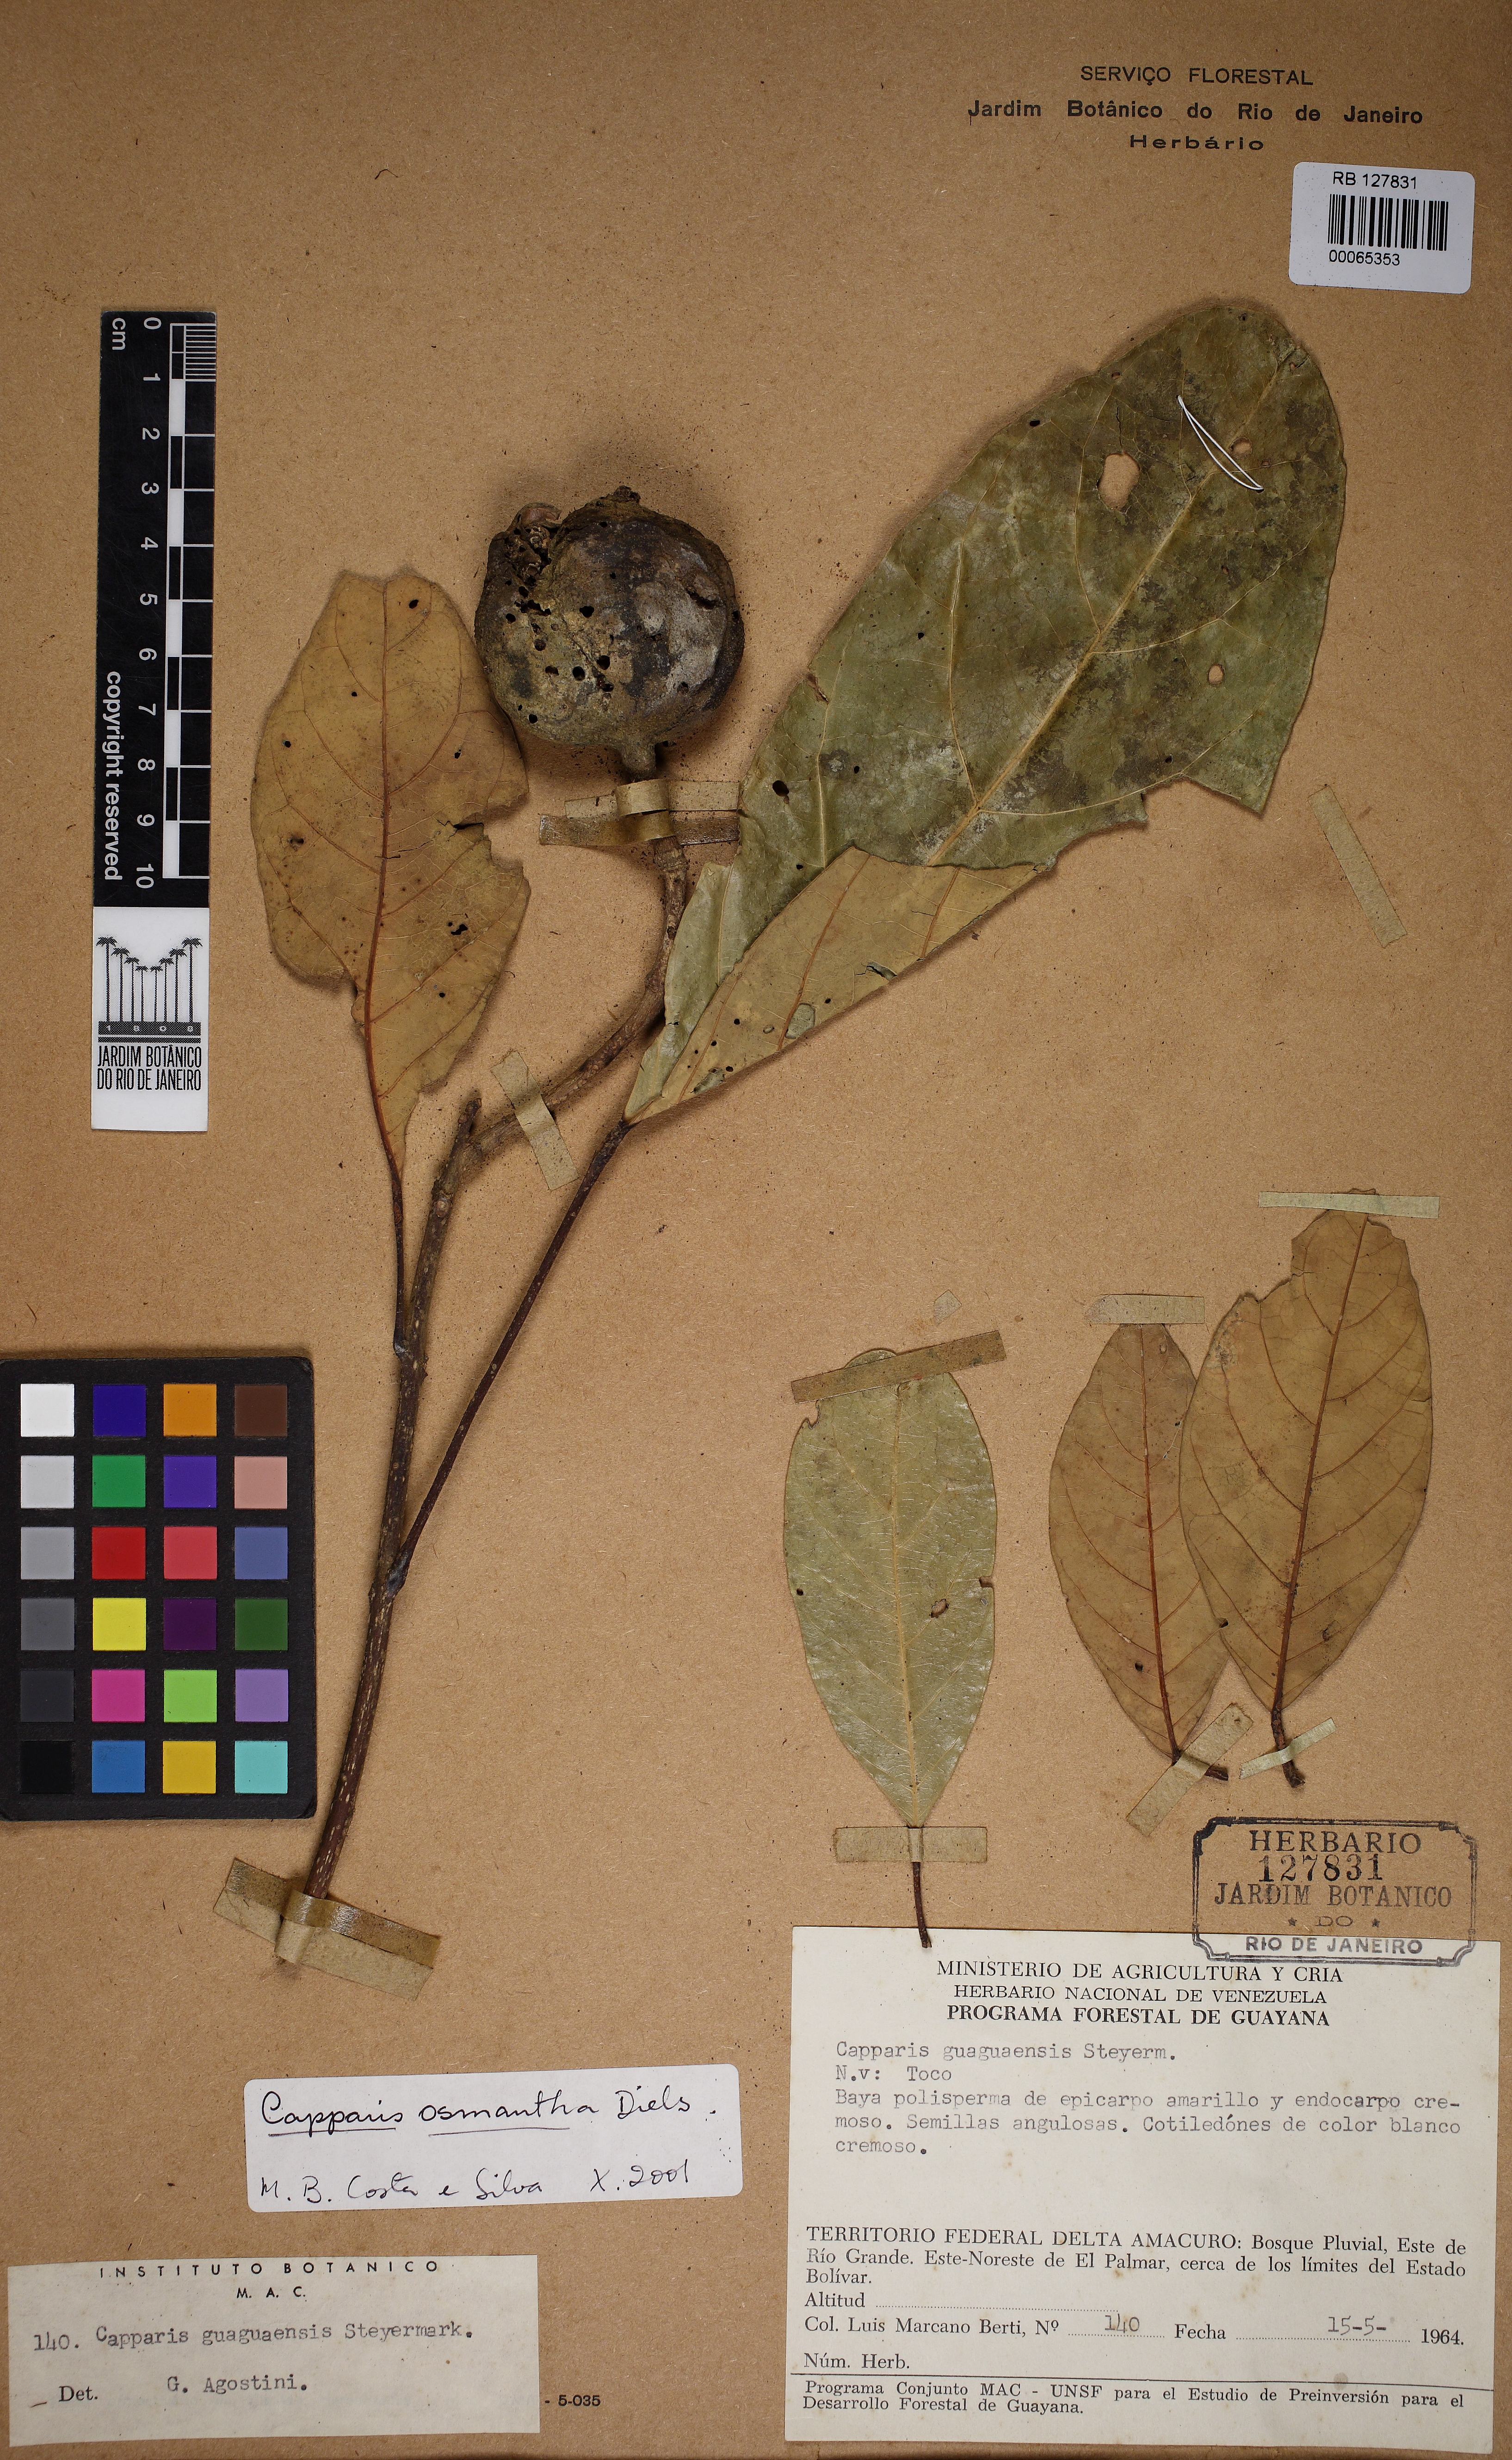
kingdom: Plantae
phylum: Tracheophyta
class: Magnoliopsida
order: Brassicales
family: Capparaceae
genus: Capparidastrum
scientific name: Capparidastrum osmanthum
